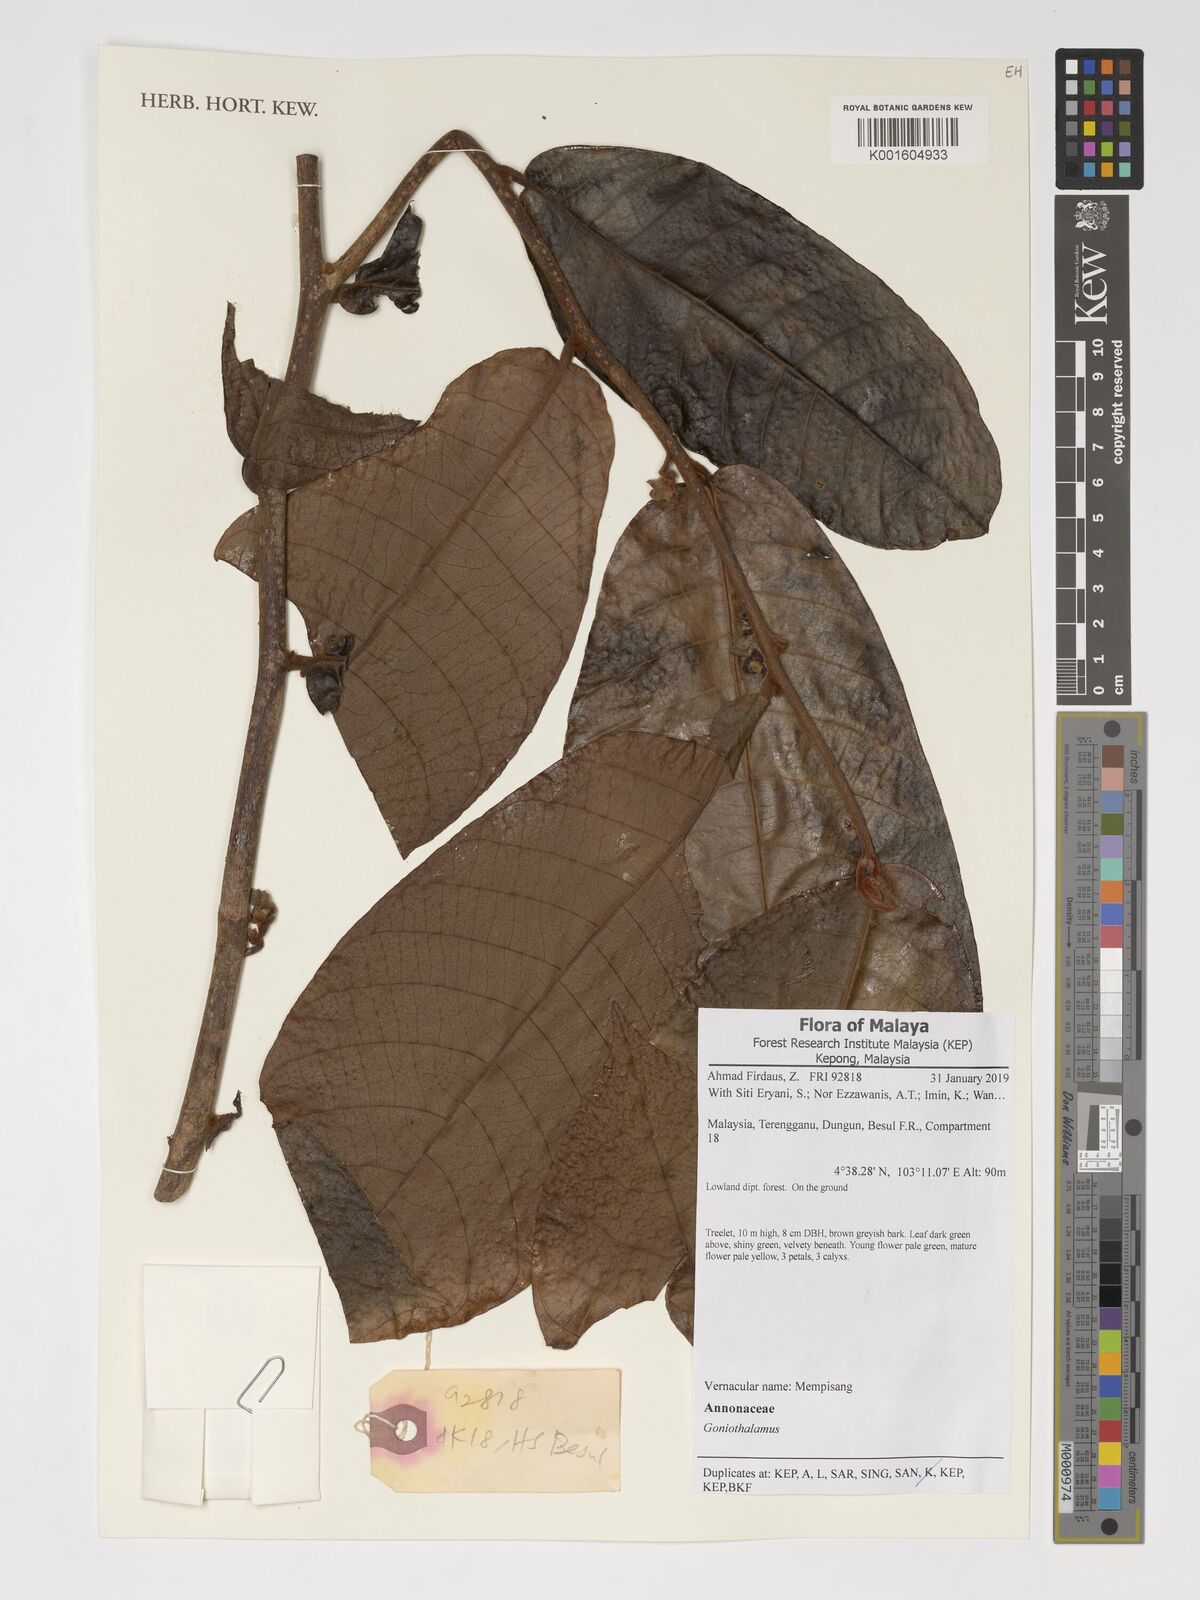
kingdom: Plantae
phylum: Tracheophyta
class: Magnoliopsida
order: Magnoliales
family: Annonaceae
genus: Goniothalamus
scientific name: Goniothalamus
